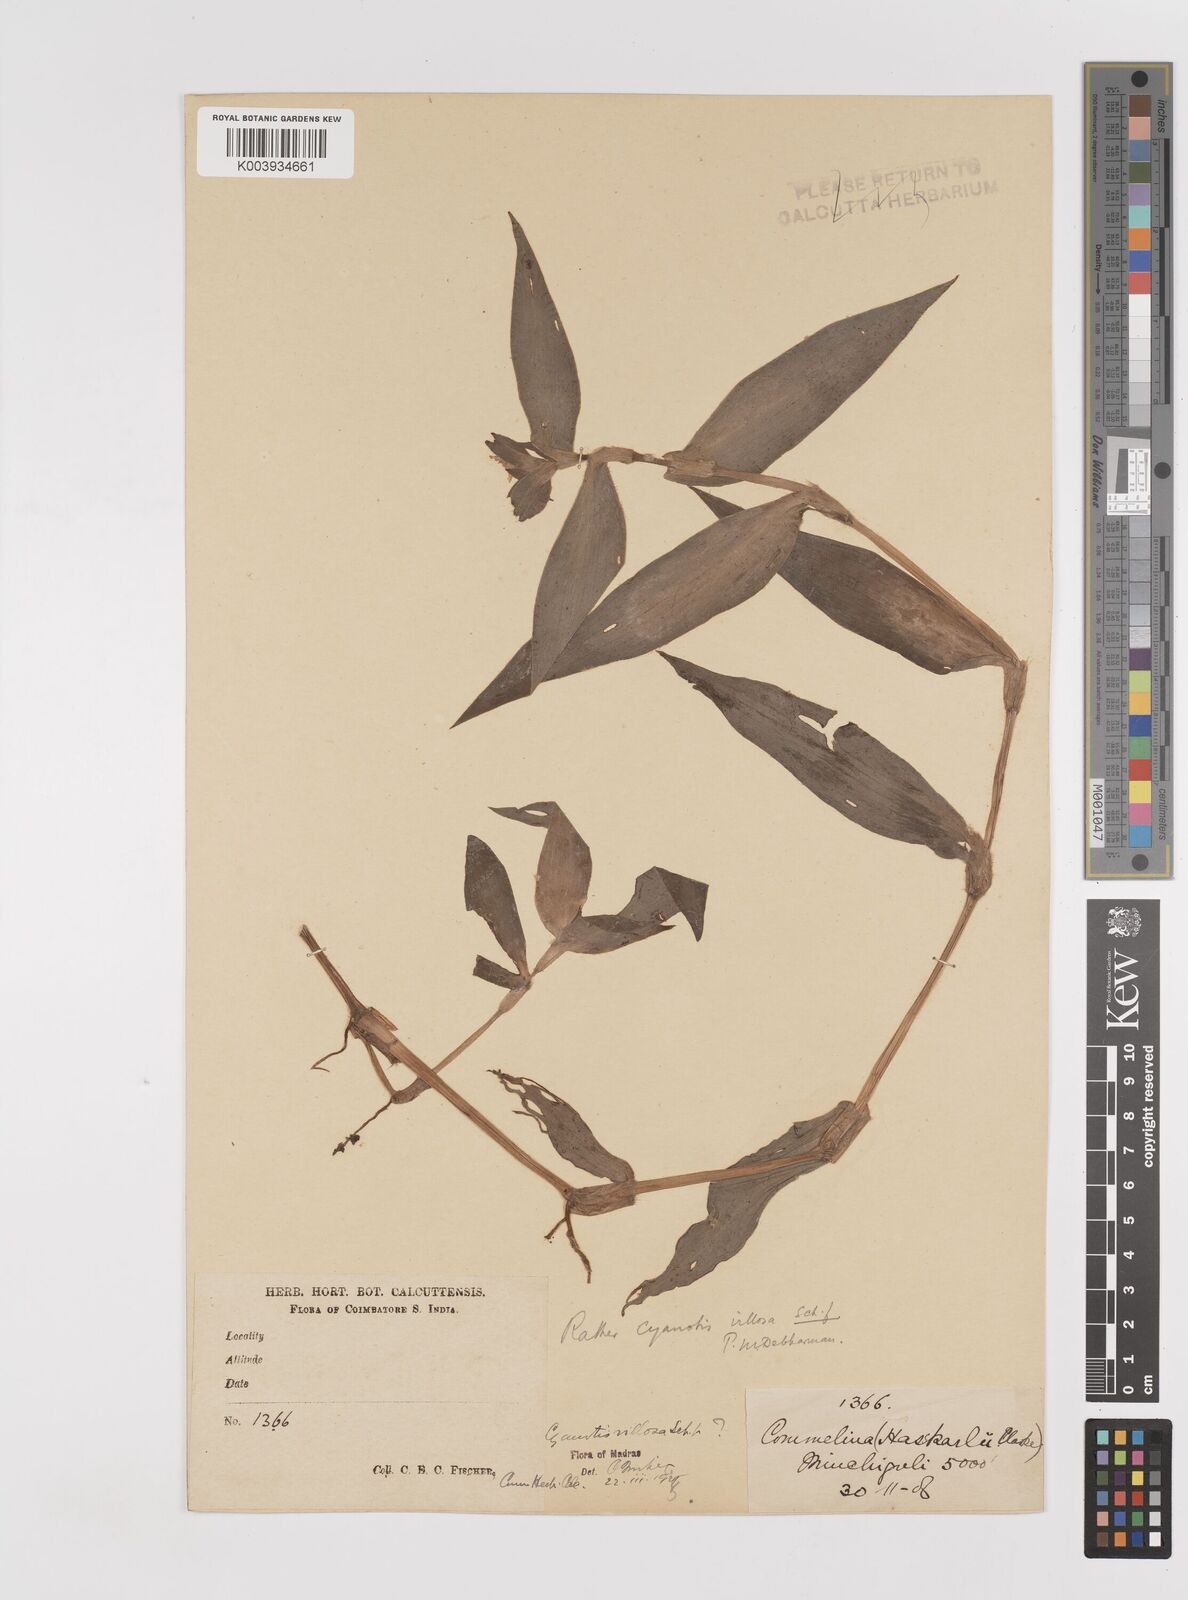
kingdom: Plantae
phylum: Tracheophyta
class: Liliopsida
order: Commelinales
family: Commelinaceae
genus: Cyanotis
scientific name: Cyanotis villosa
